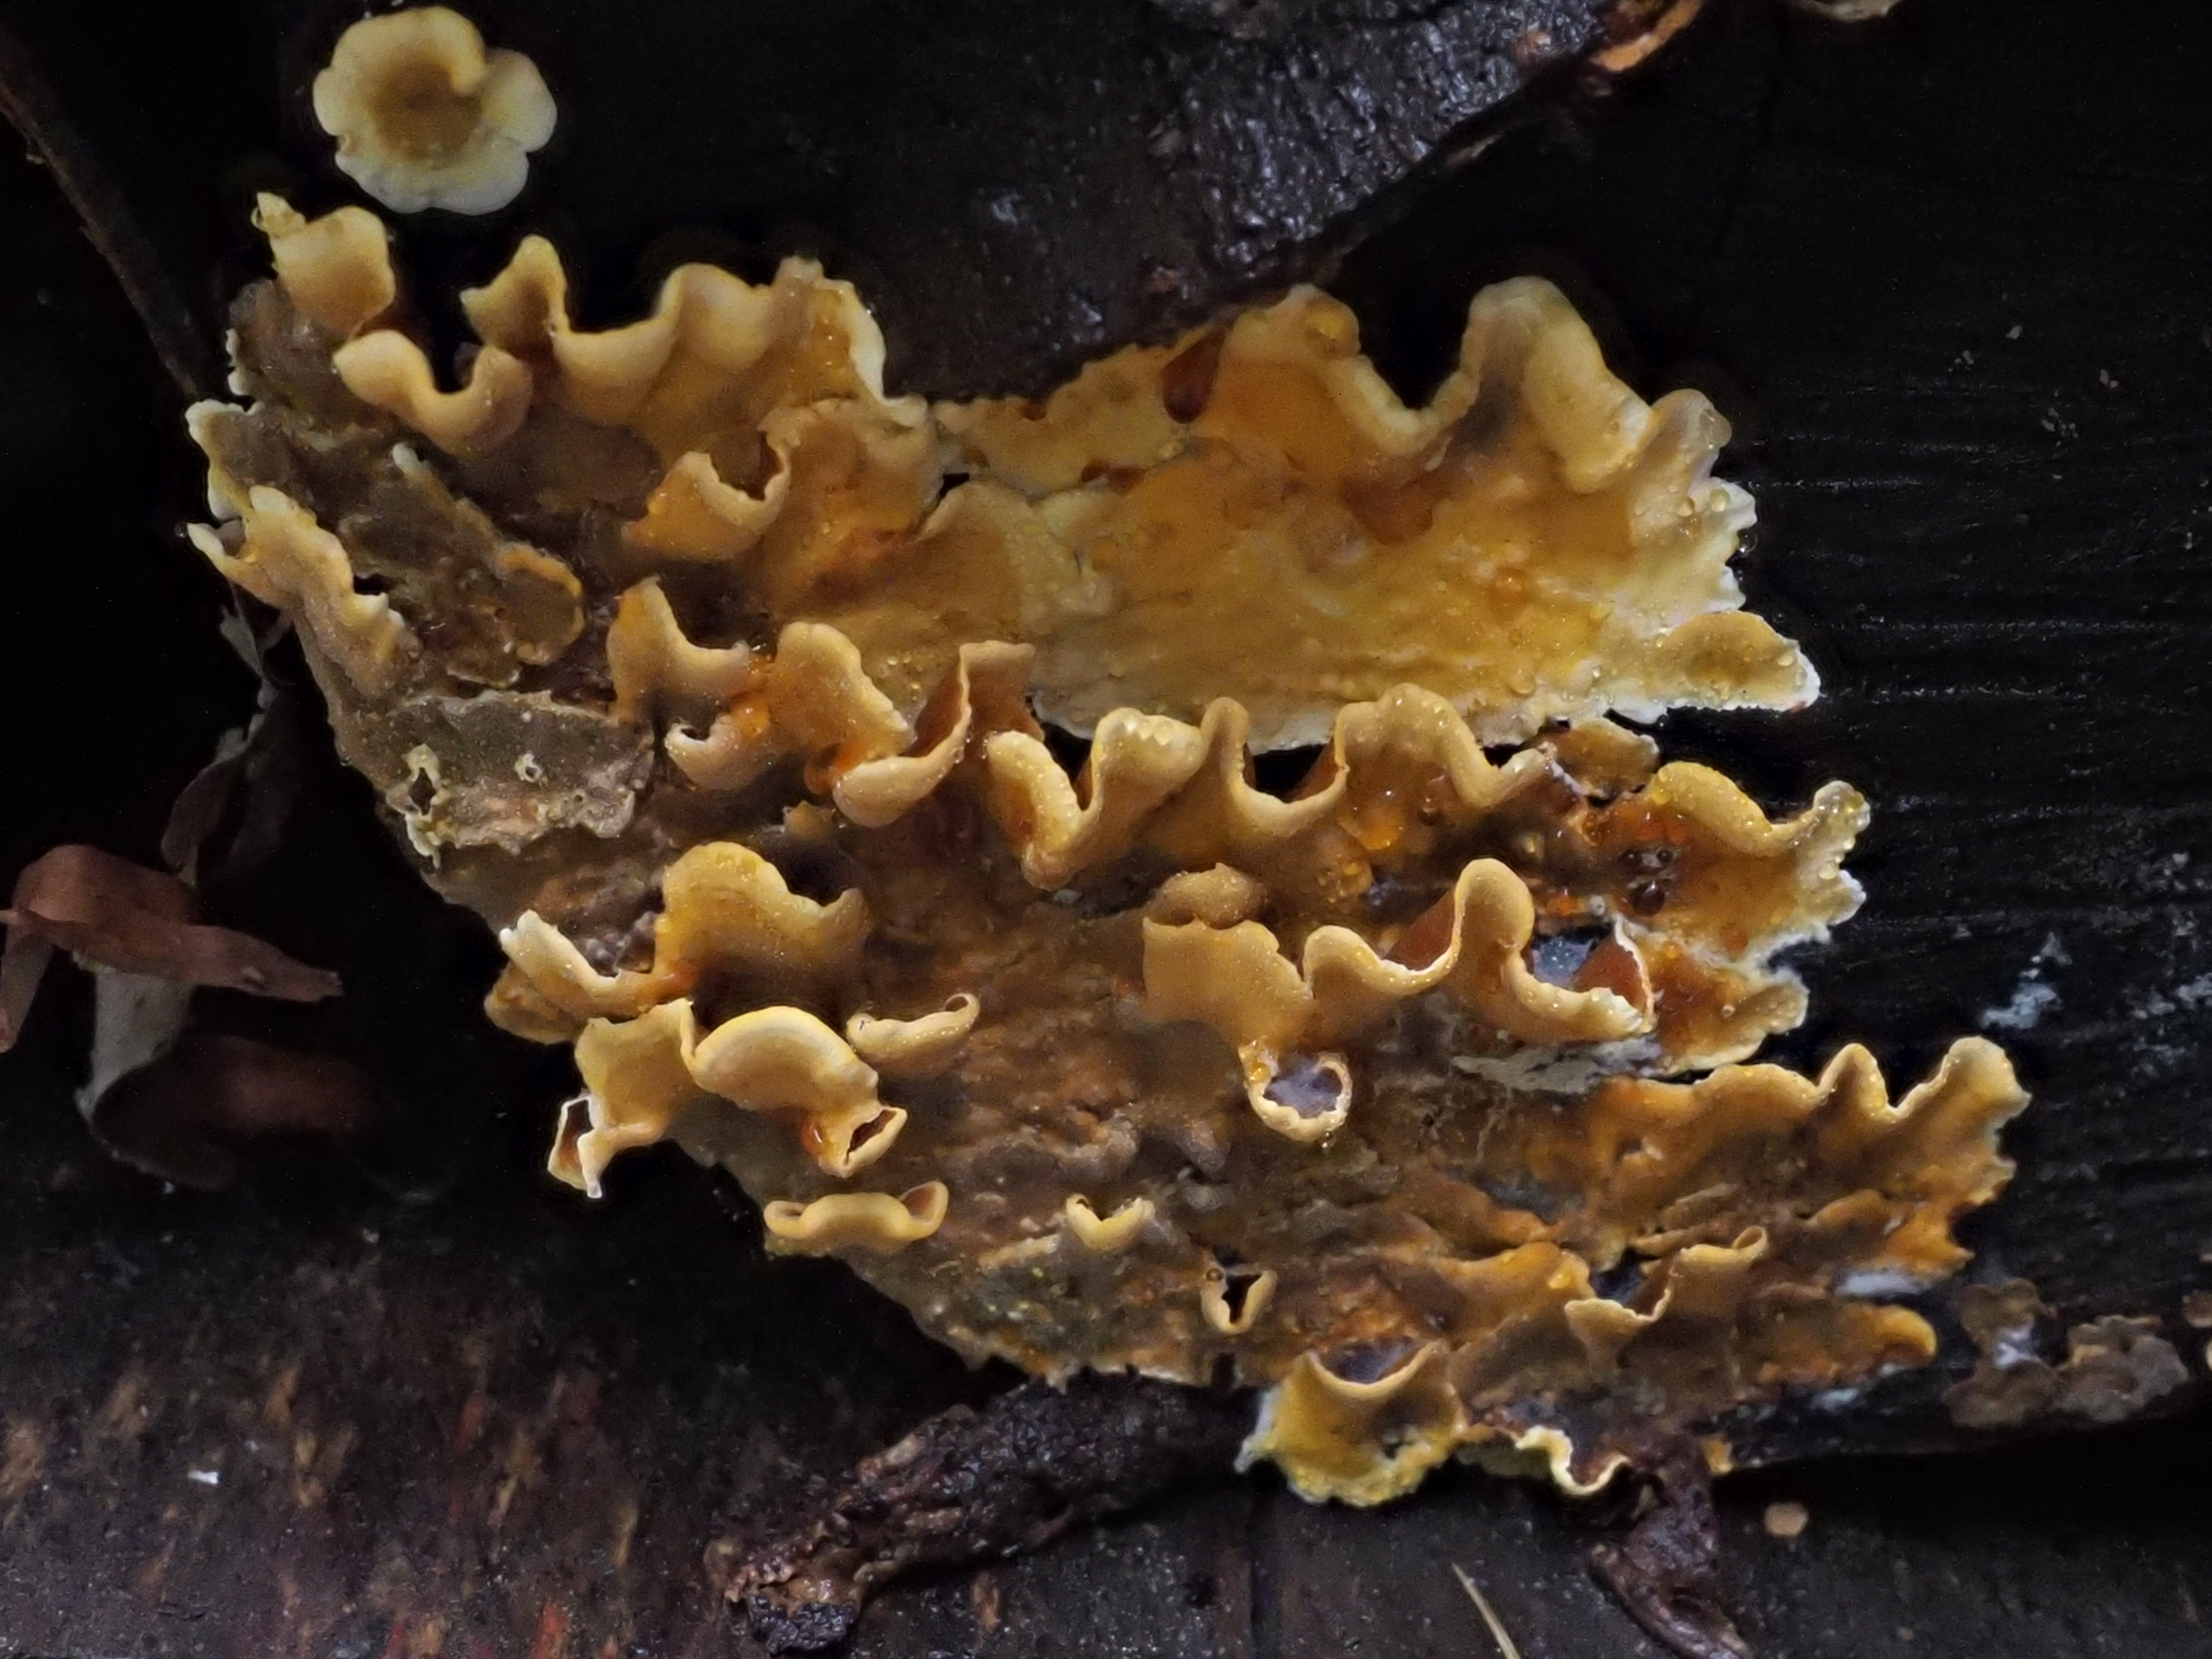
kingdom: Fungi
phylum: Basidiomycota
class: Agaricomycetes
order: Russulales
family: Stereaceae
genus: Stereum
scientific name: Stereum hirsutum
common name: Hairy curtain crust
